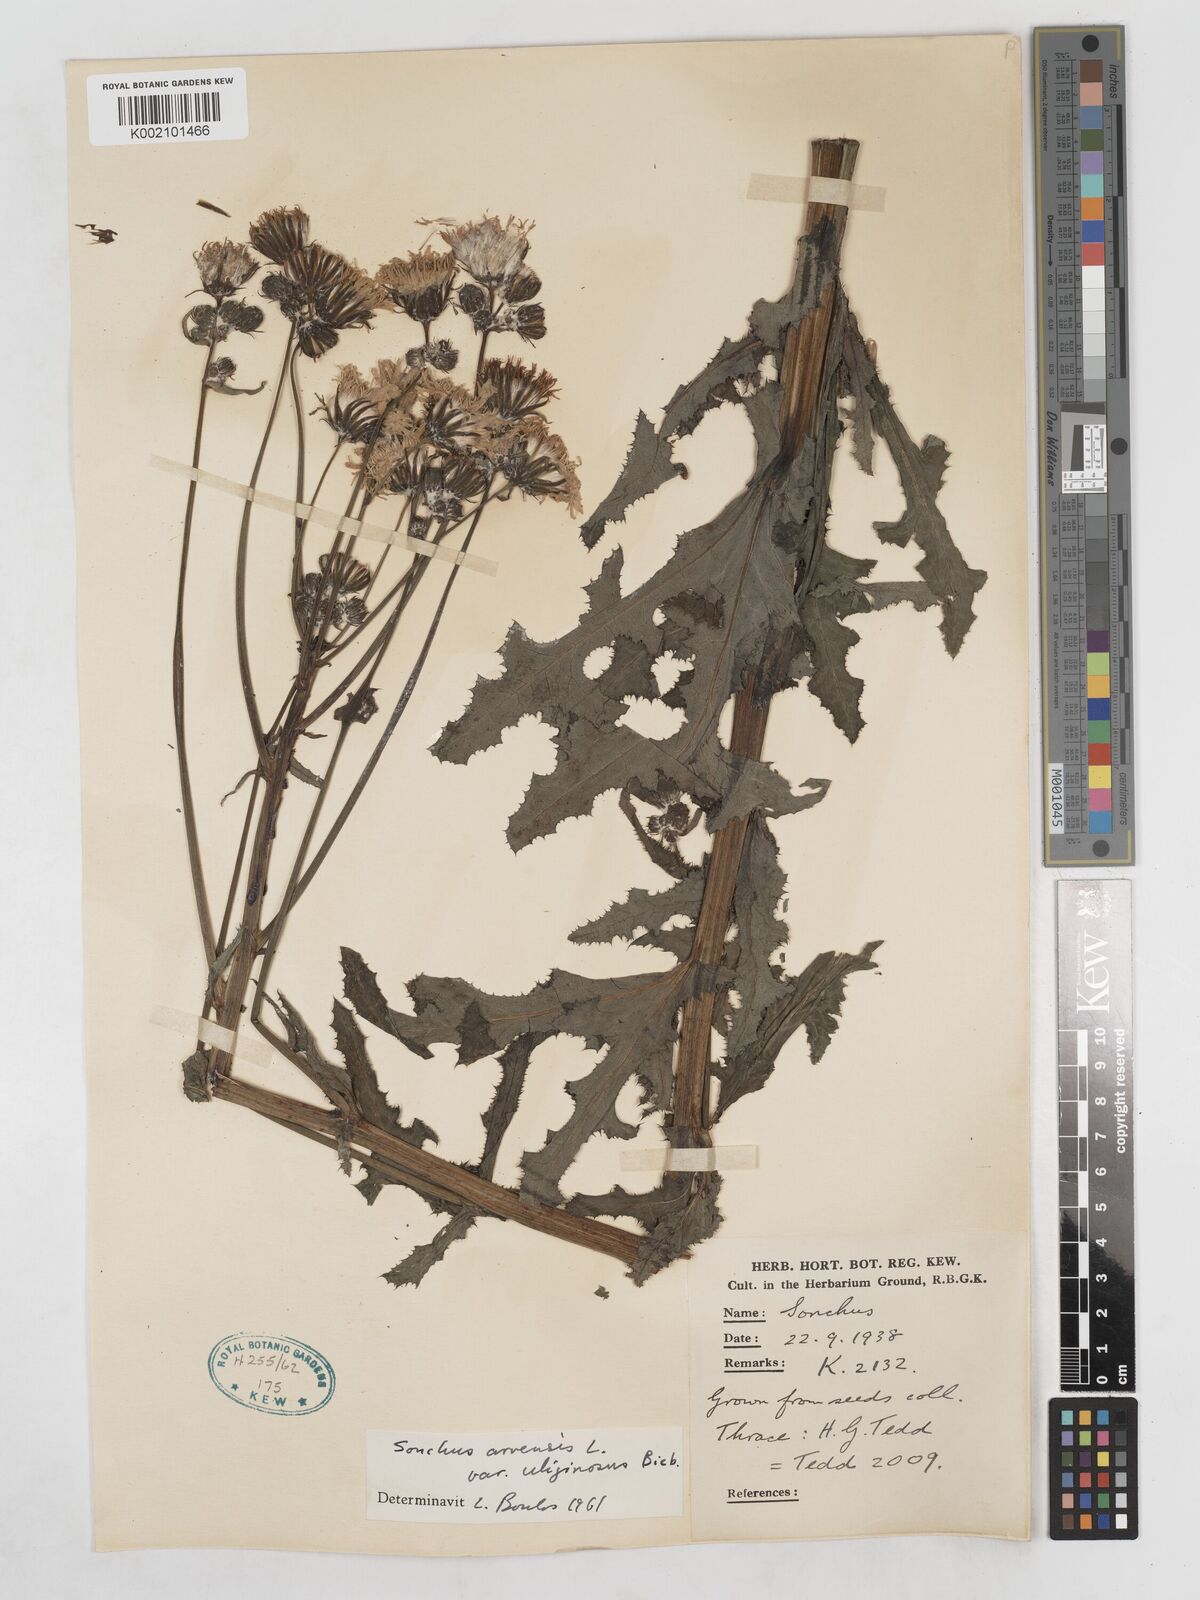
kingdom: Plantae
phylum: Tracheophyta
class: Magnoliopsida
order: Asterales
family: Asteraceae
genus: Sonchus
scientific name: Sonchus arvensis
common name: Perennial sow-thistle
